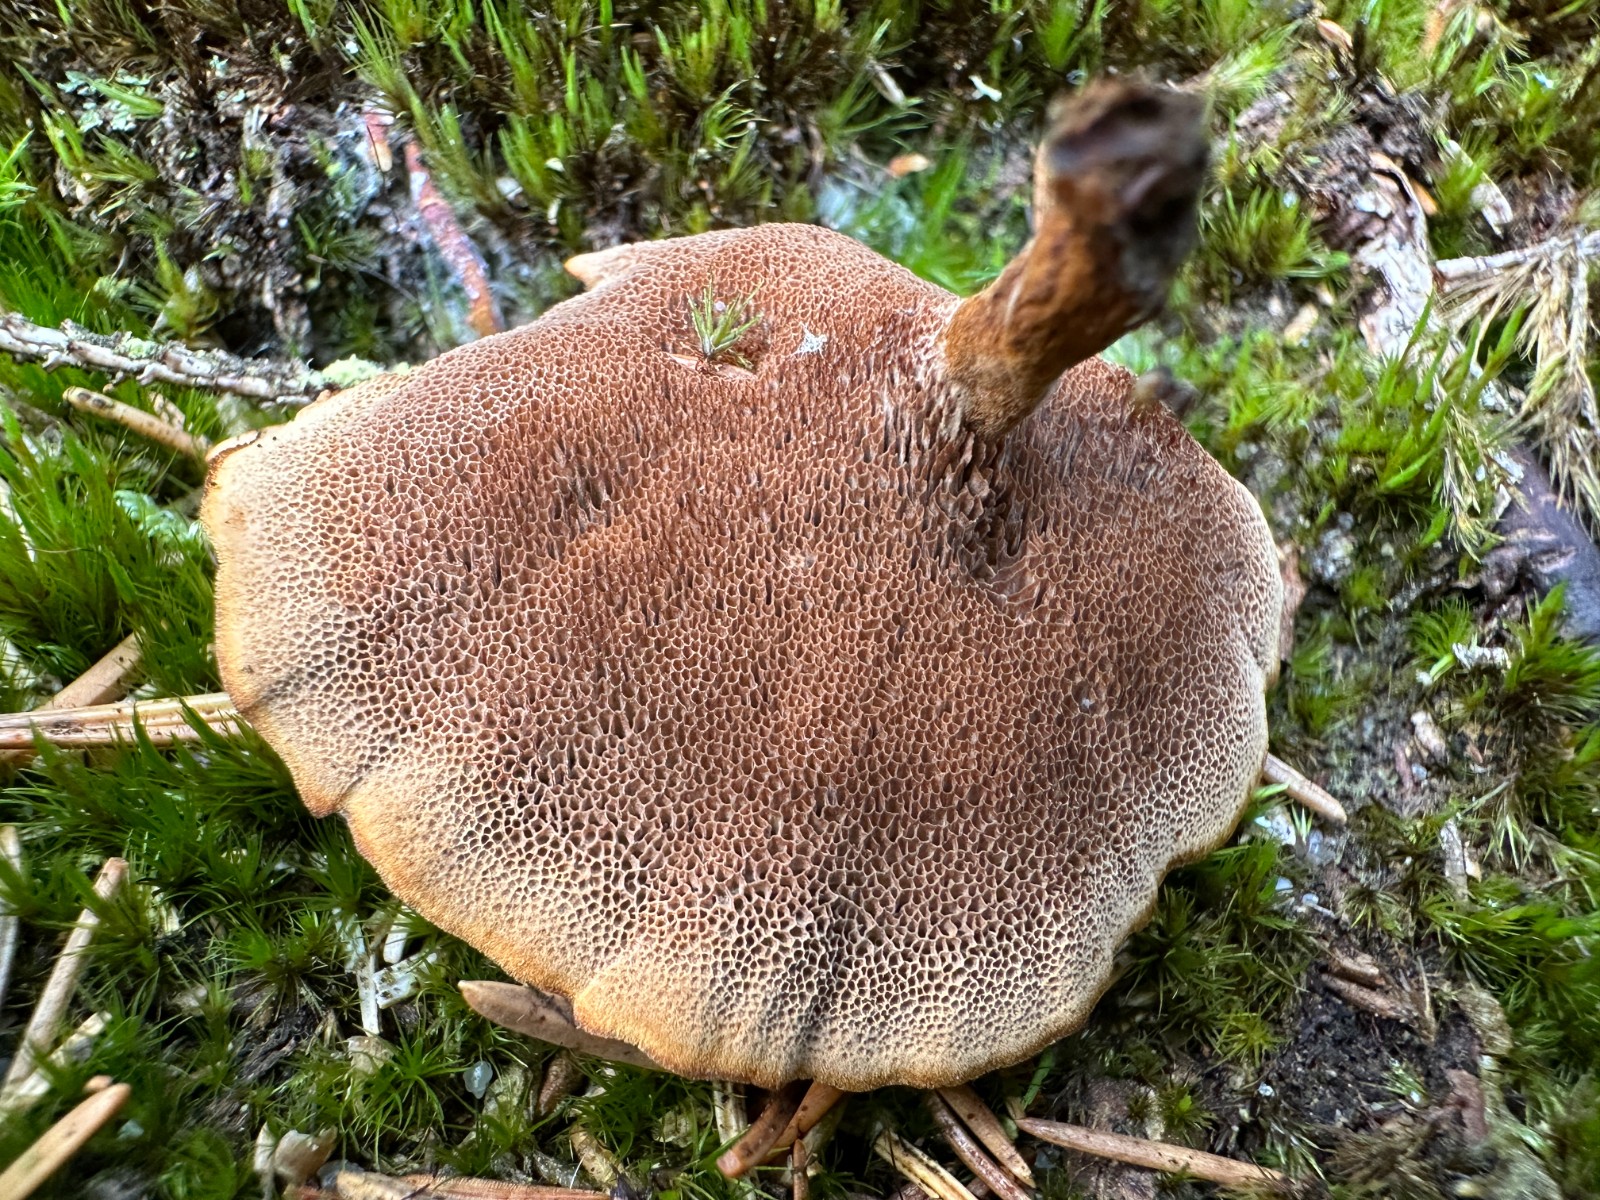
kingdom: Fungi
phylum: Basidiomycota
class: Agaricomycetes
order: Hymenochaetales
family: Hymenochaetaceae
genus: Coltricia
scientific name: Coltricia perennis
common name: almindelig sandporesvamp
